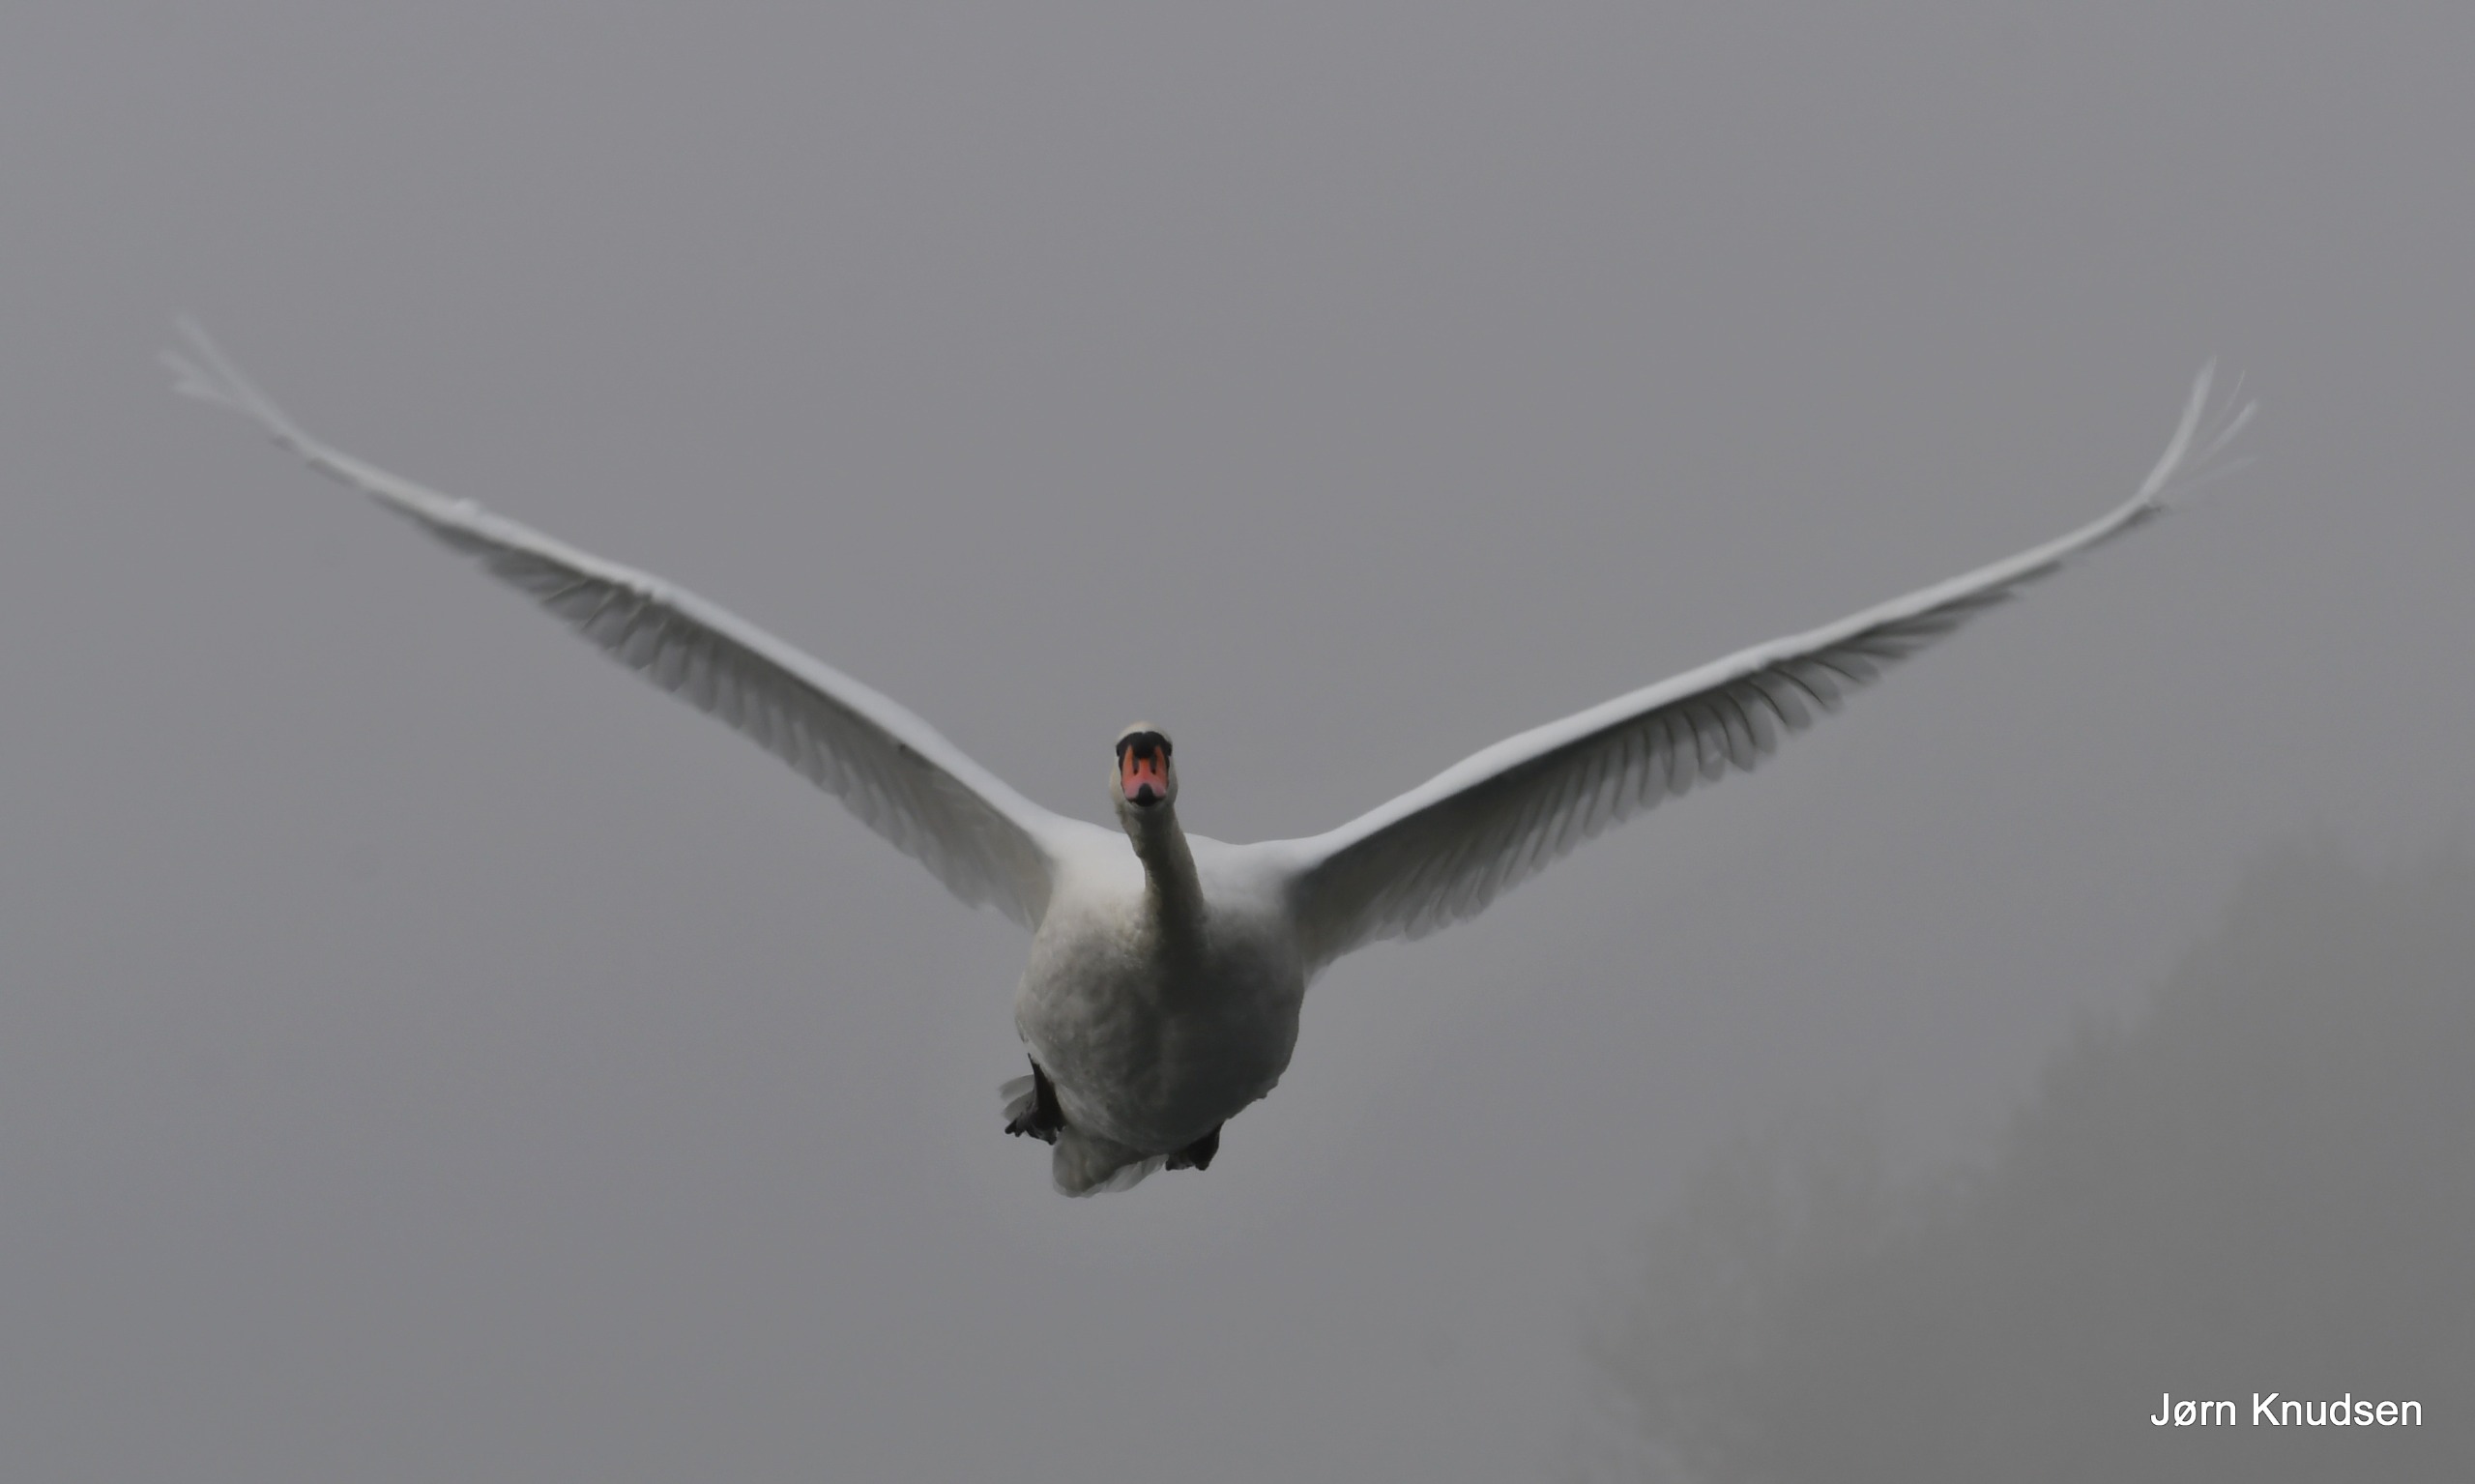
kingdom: Animalia
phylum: Chordata
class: Aves
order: Anseriformes
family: Anatidae
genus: Cygnus
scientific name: Cygnus olor
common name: Knopsvane
